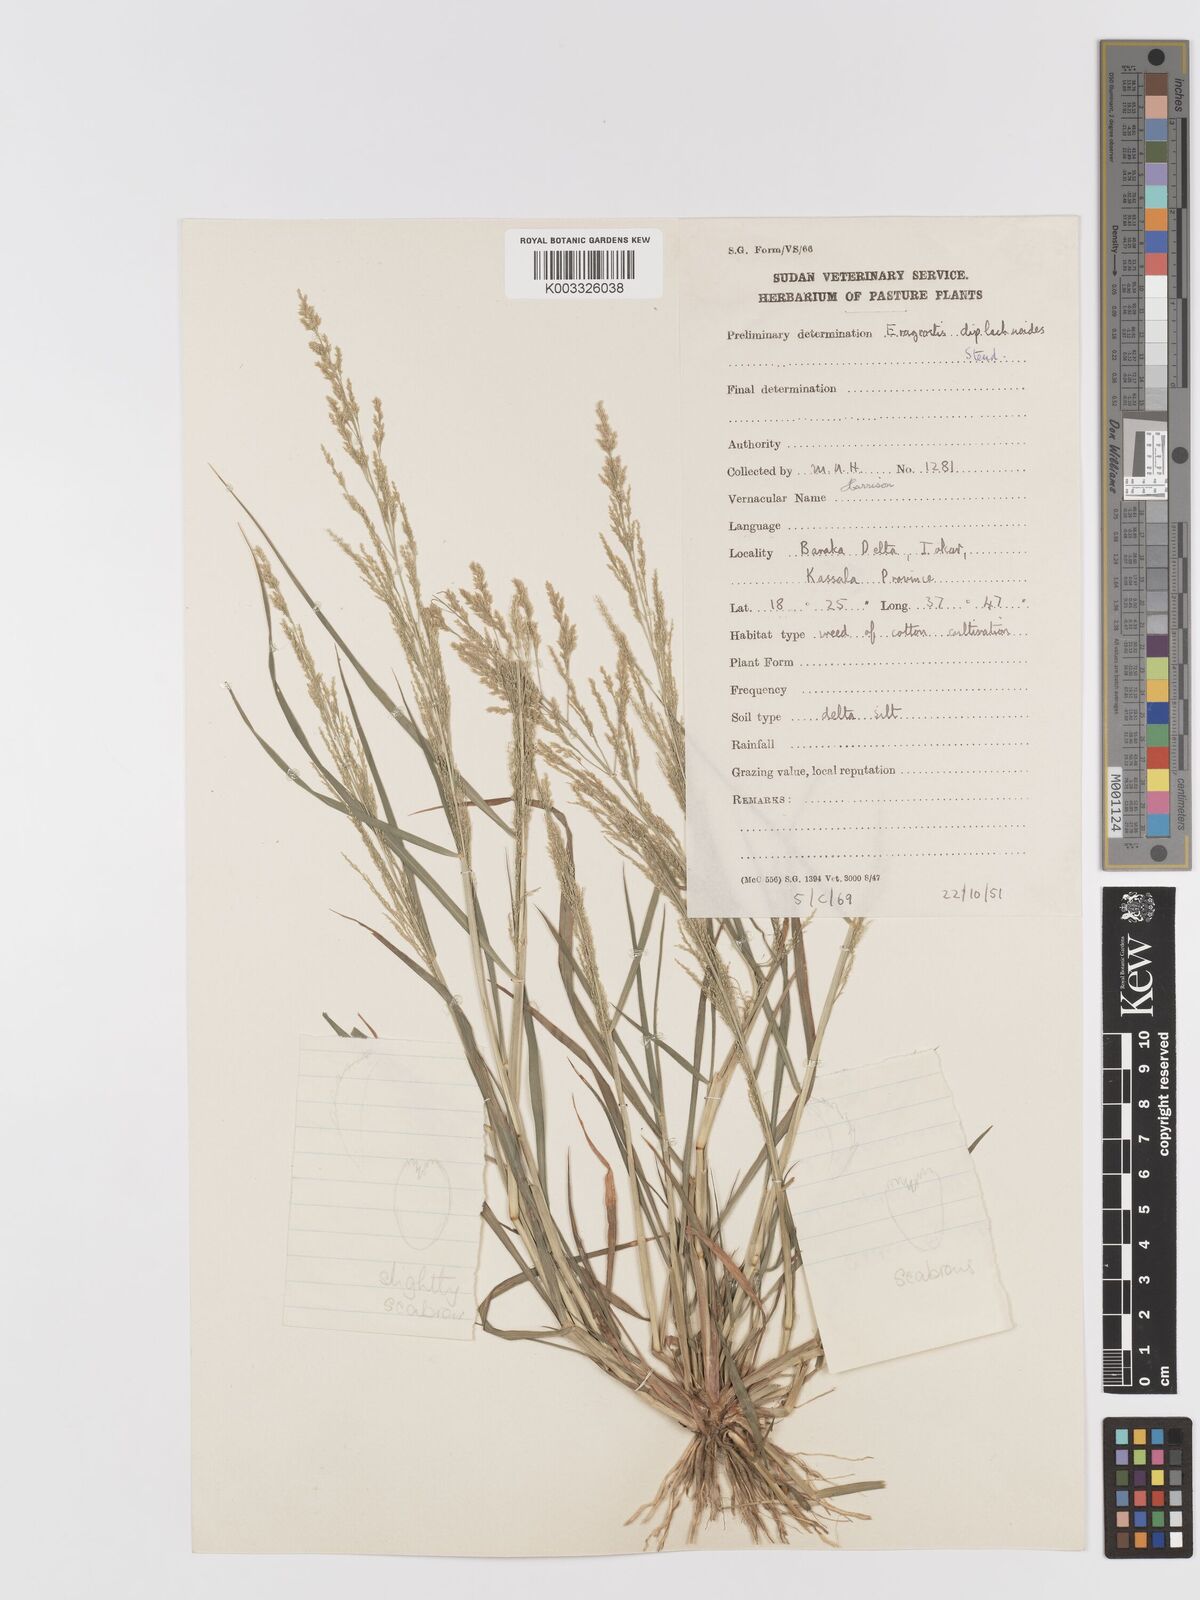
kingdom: Plantae
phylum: Tracheophyta
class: Liliopsida
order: Poales
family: Poaceae
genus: Eragrostis
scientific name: Eragrostis japonica
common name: Pond lovegrass
